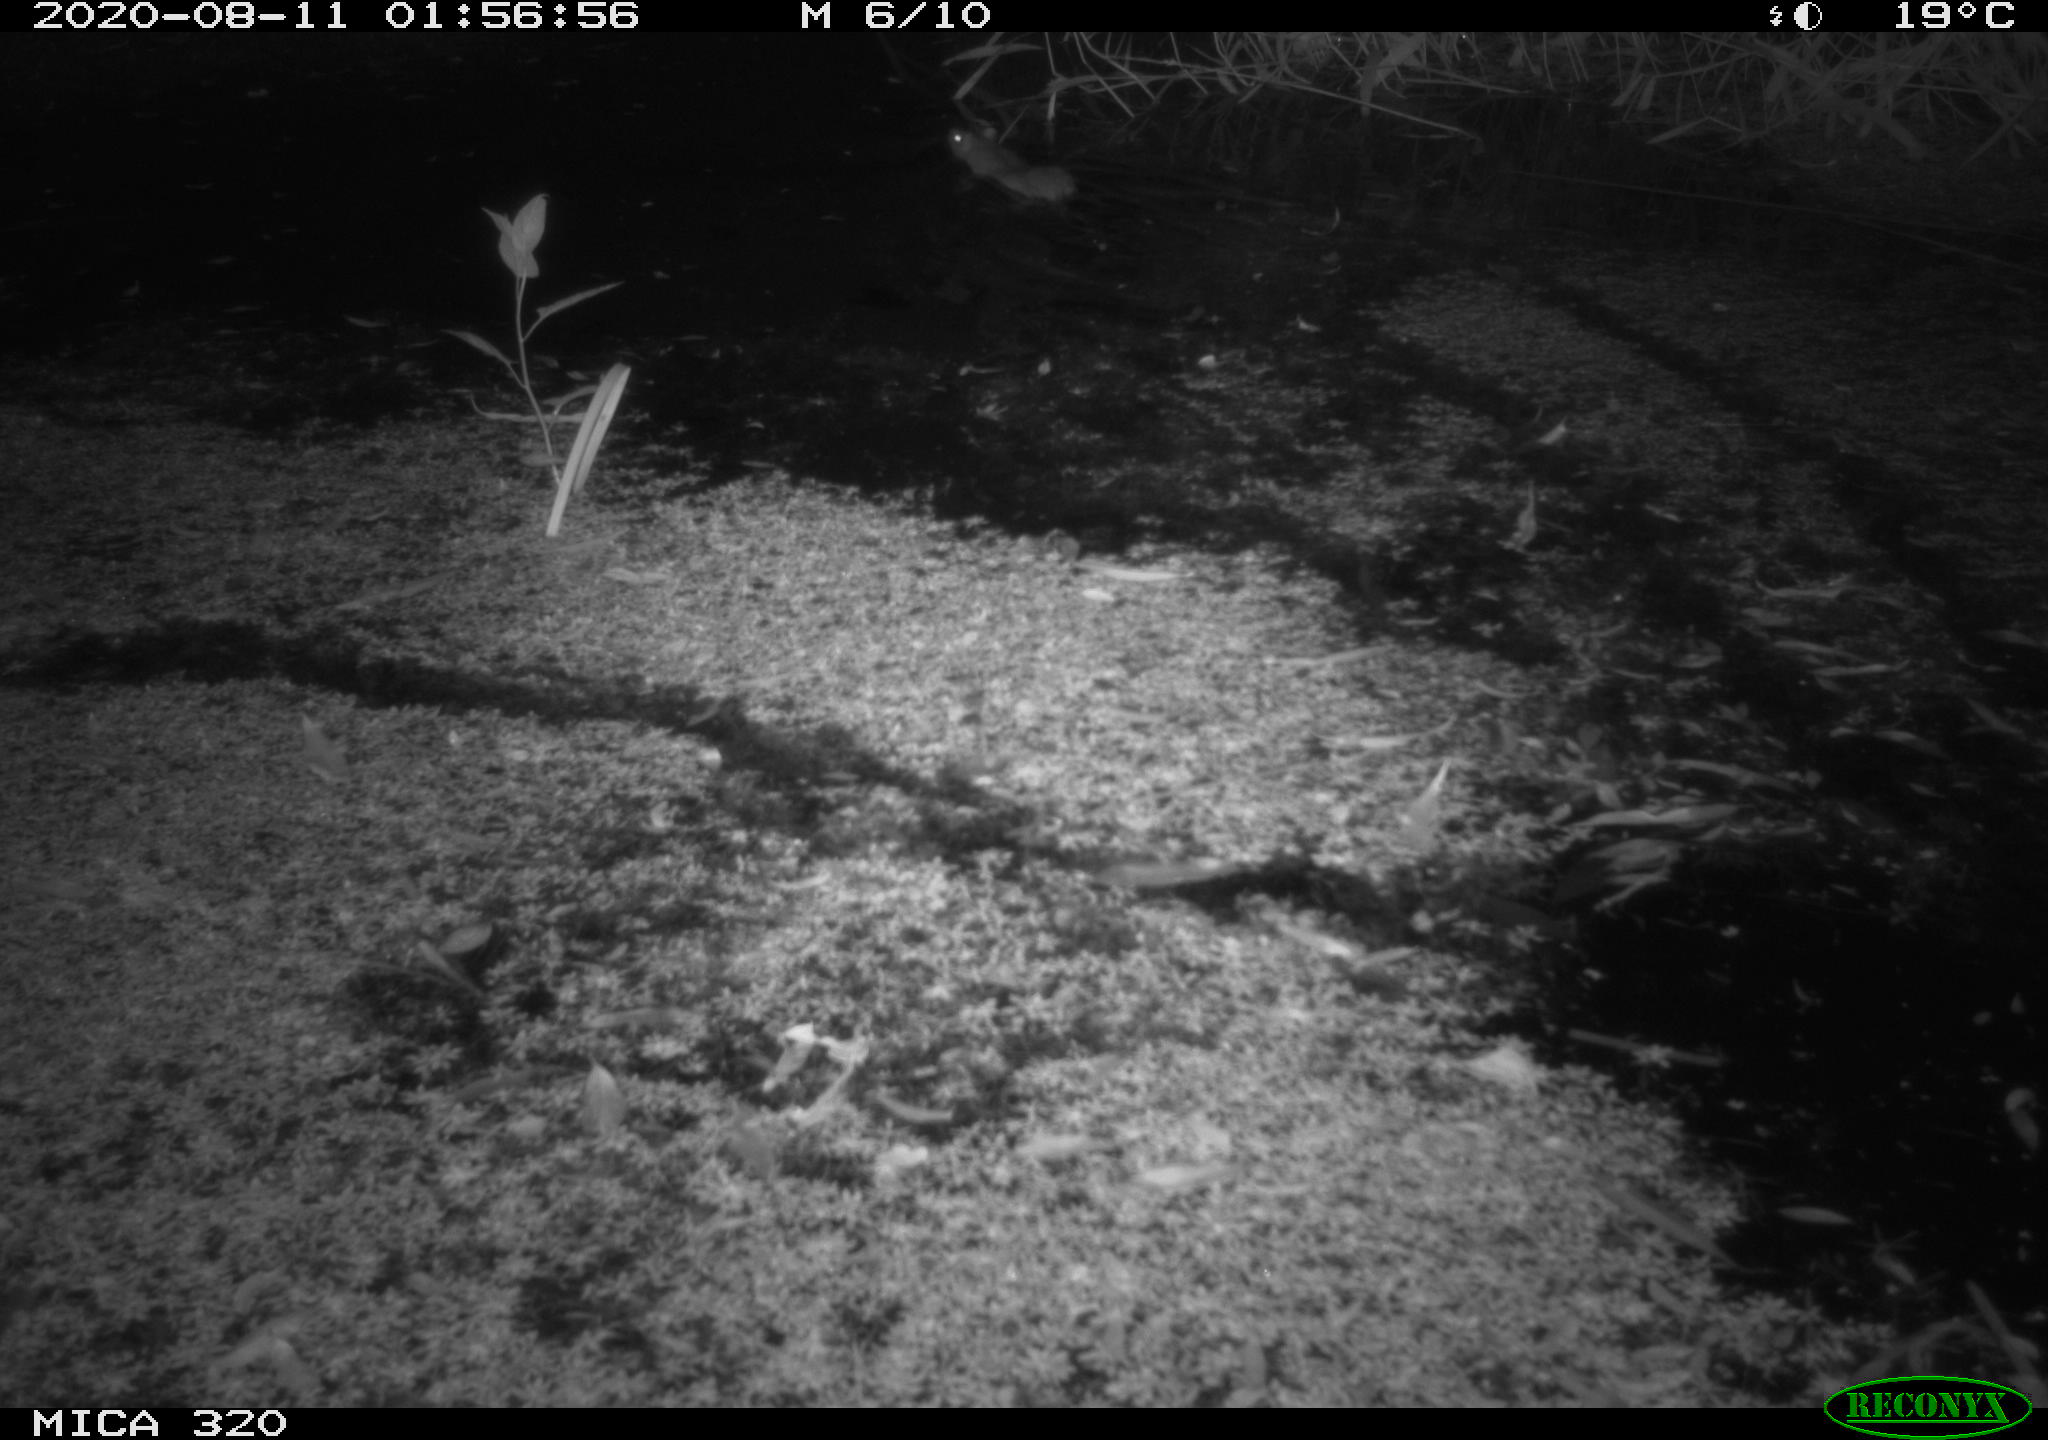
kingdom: Animalia
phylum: Chordata
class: Mammalia
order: Rodentia
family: Muridae
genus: Rattus
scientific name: Rattus norvegicus
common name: Brown rat
